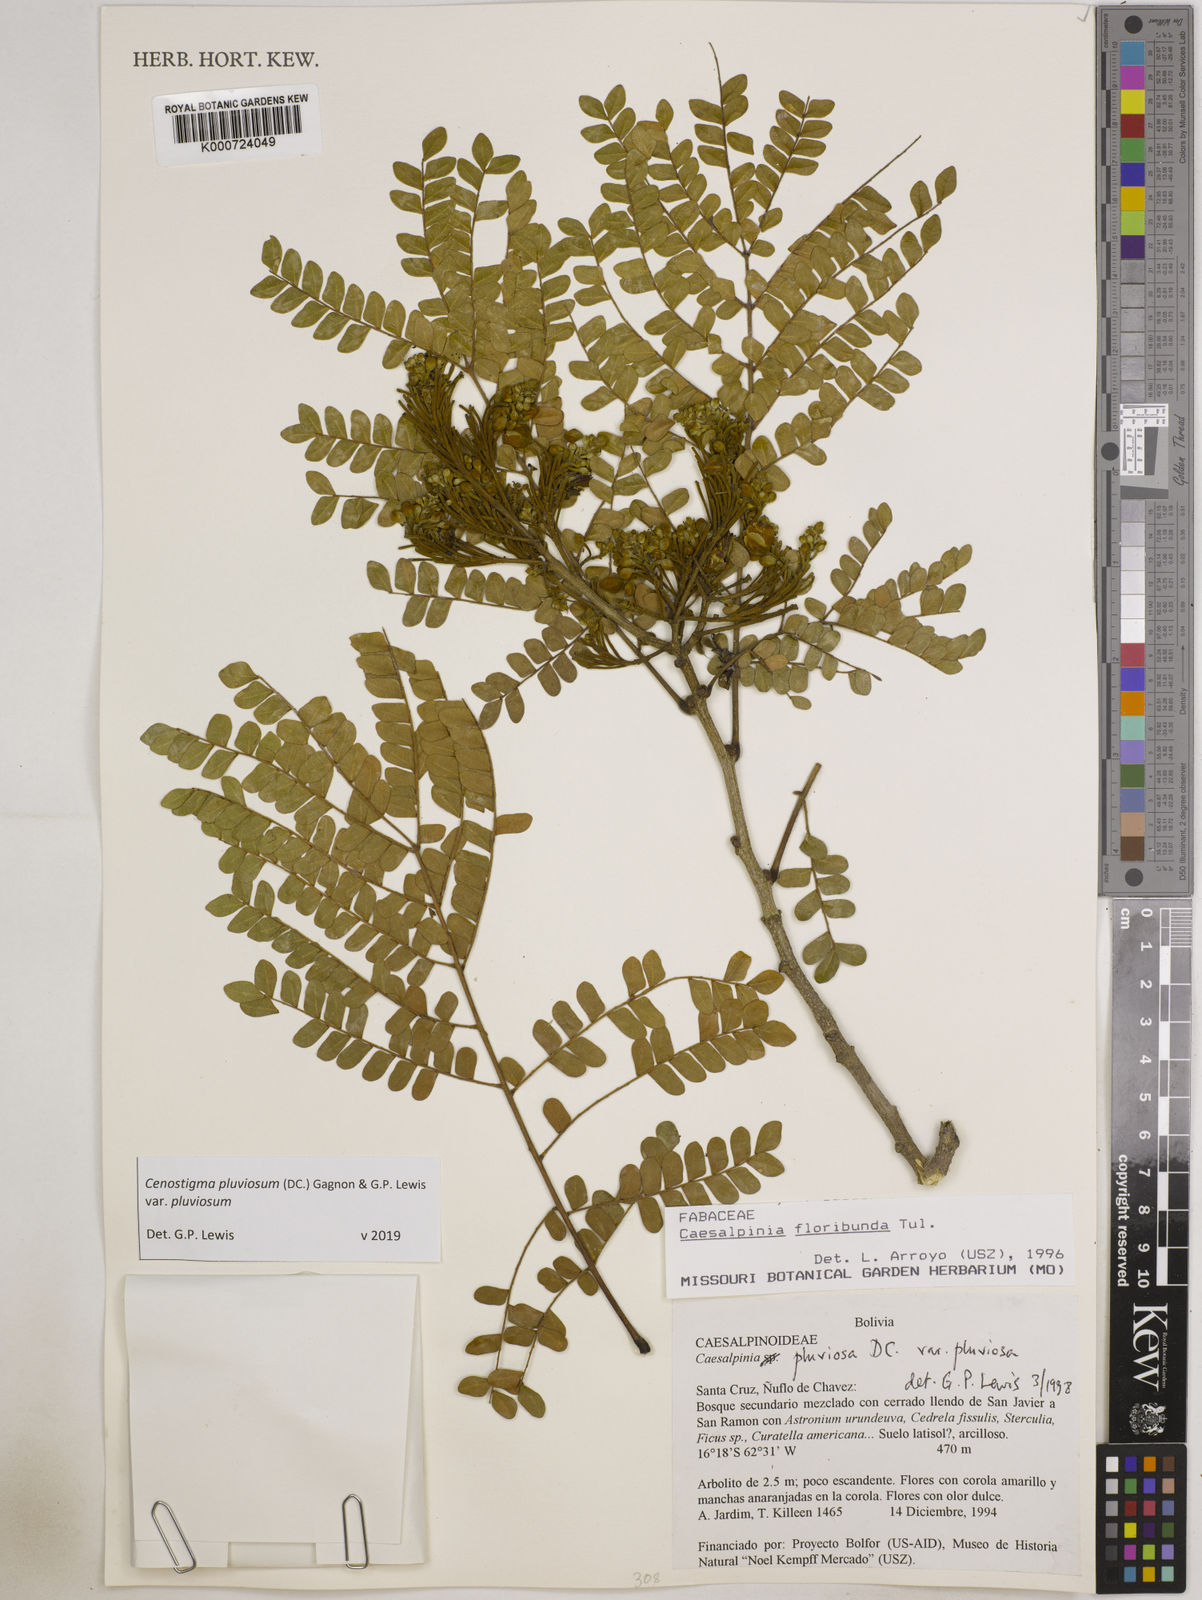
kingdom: Plantae
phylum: Tracheophyta
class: Magnoliopsida
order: Fabales
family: Fabaceae
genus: Cenostigma
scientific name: Cenostigma pluviosum
